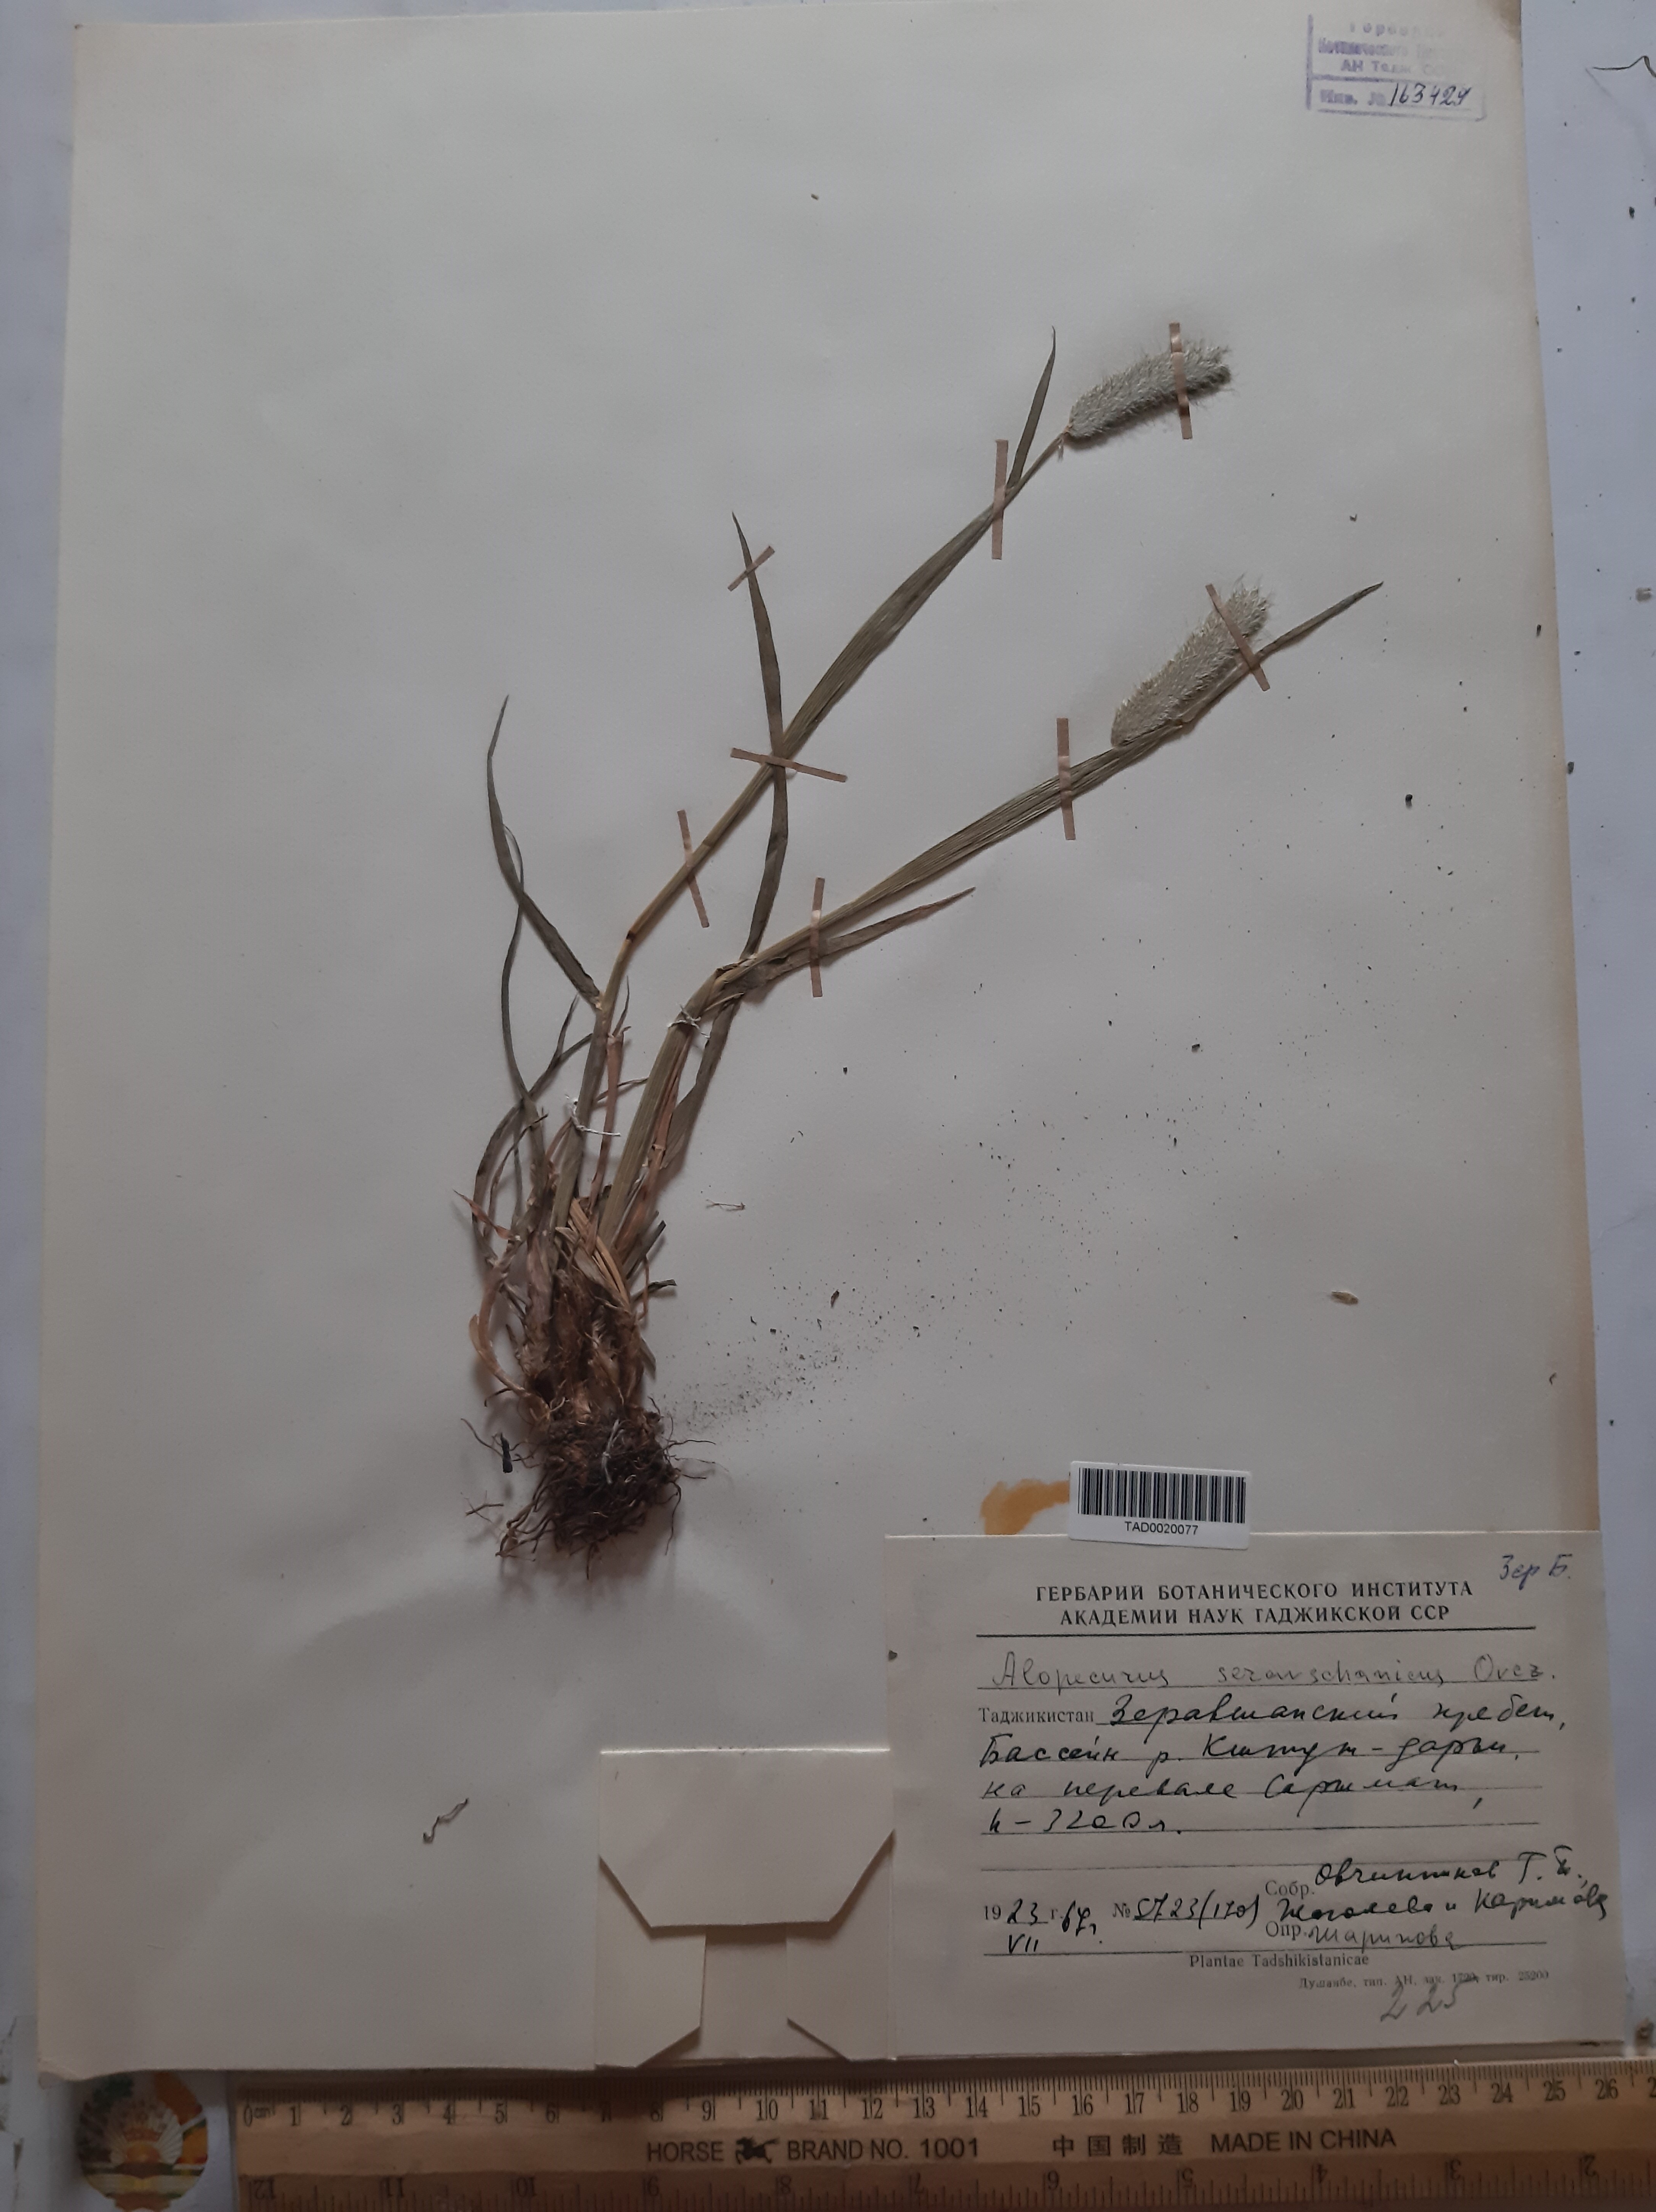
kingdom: Plantae
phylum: Tracheophyta
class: Liliopsida
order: Poales
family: Poaceae
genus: Alopecurus
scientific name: Alopecurus pratensis
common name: Meadow foxtail
